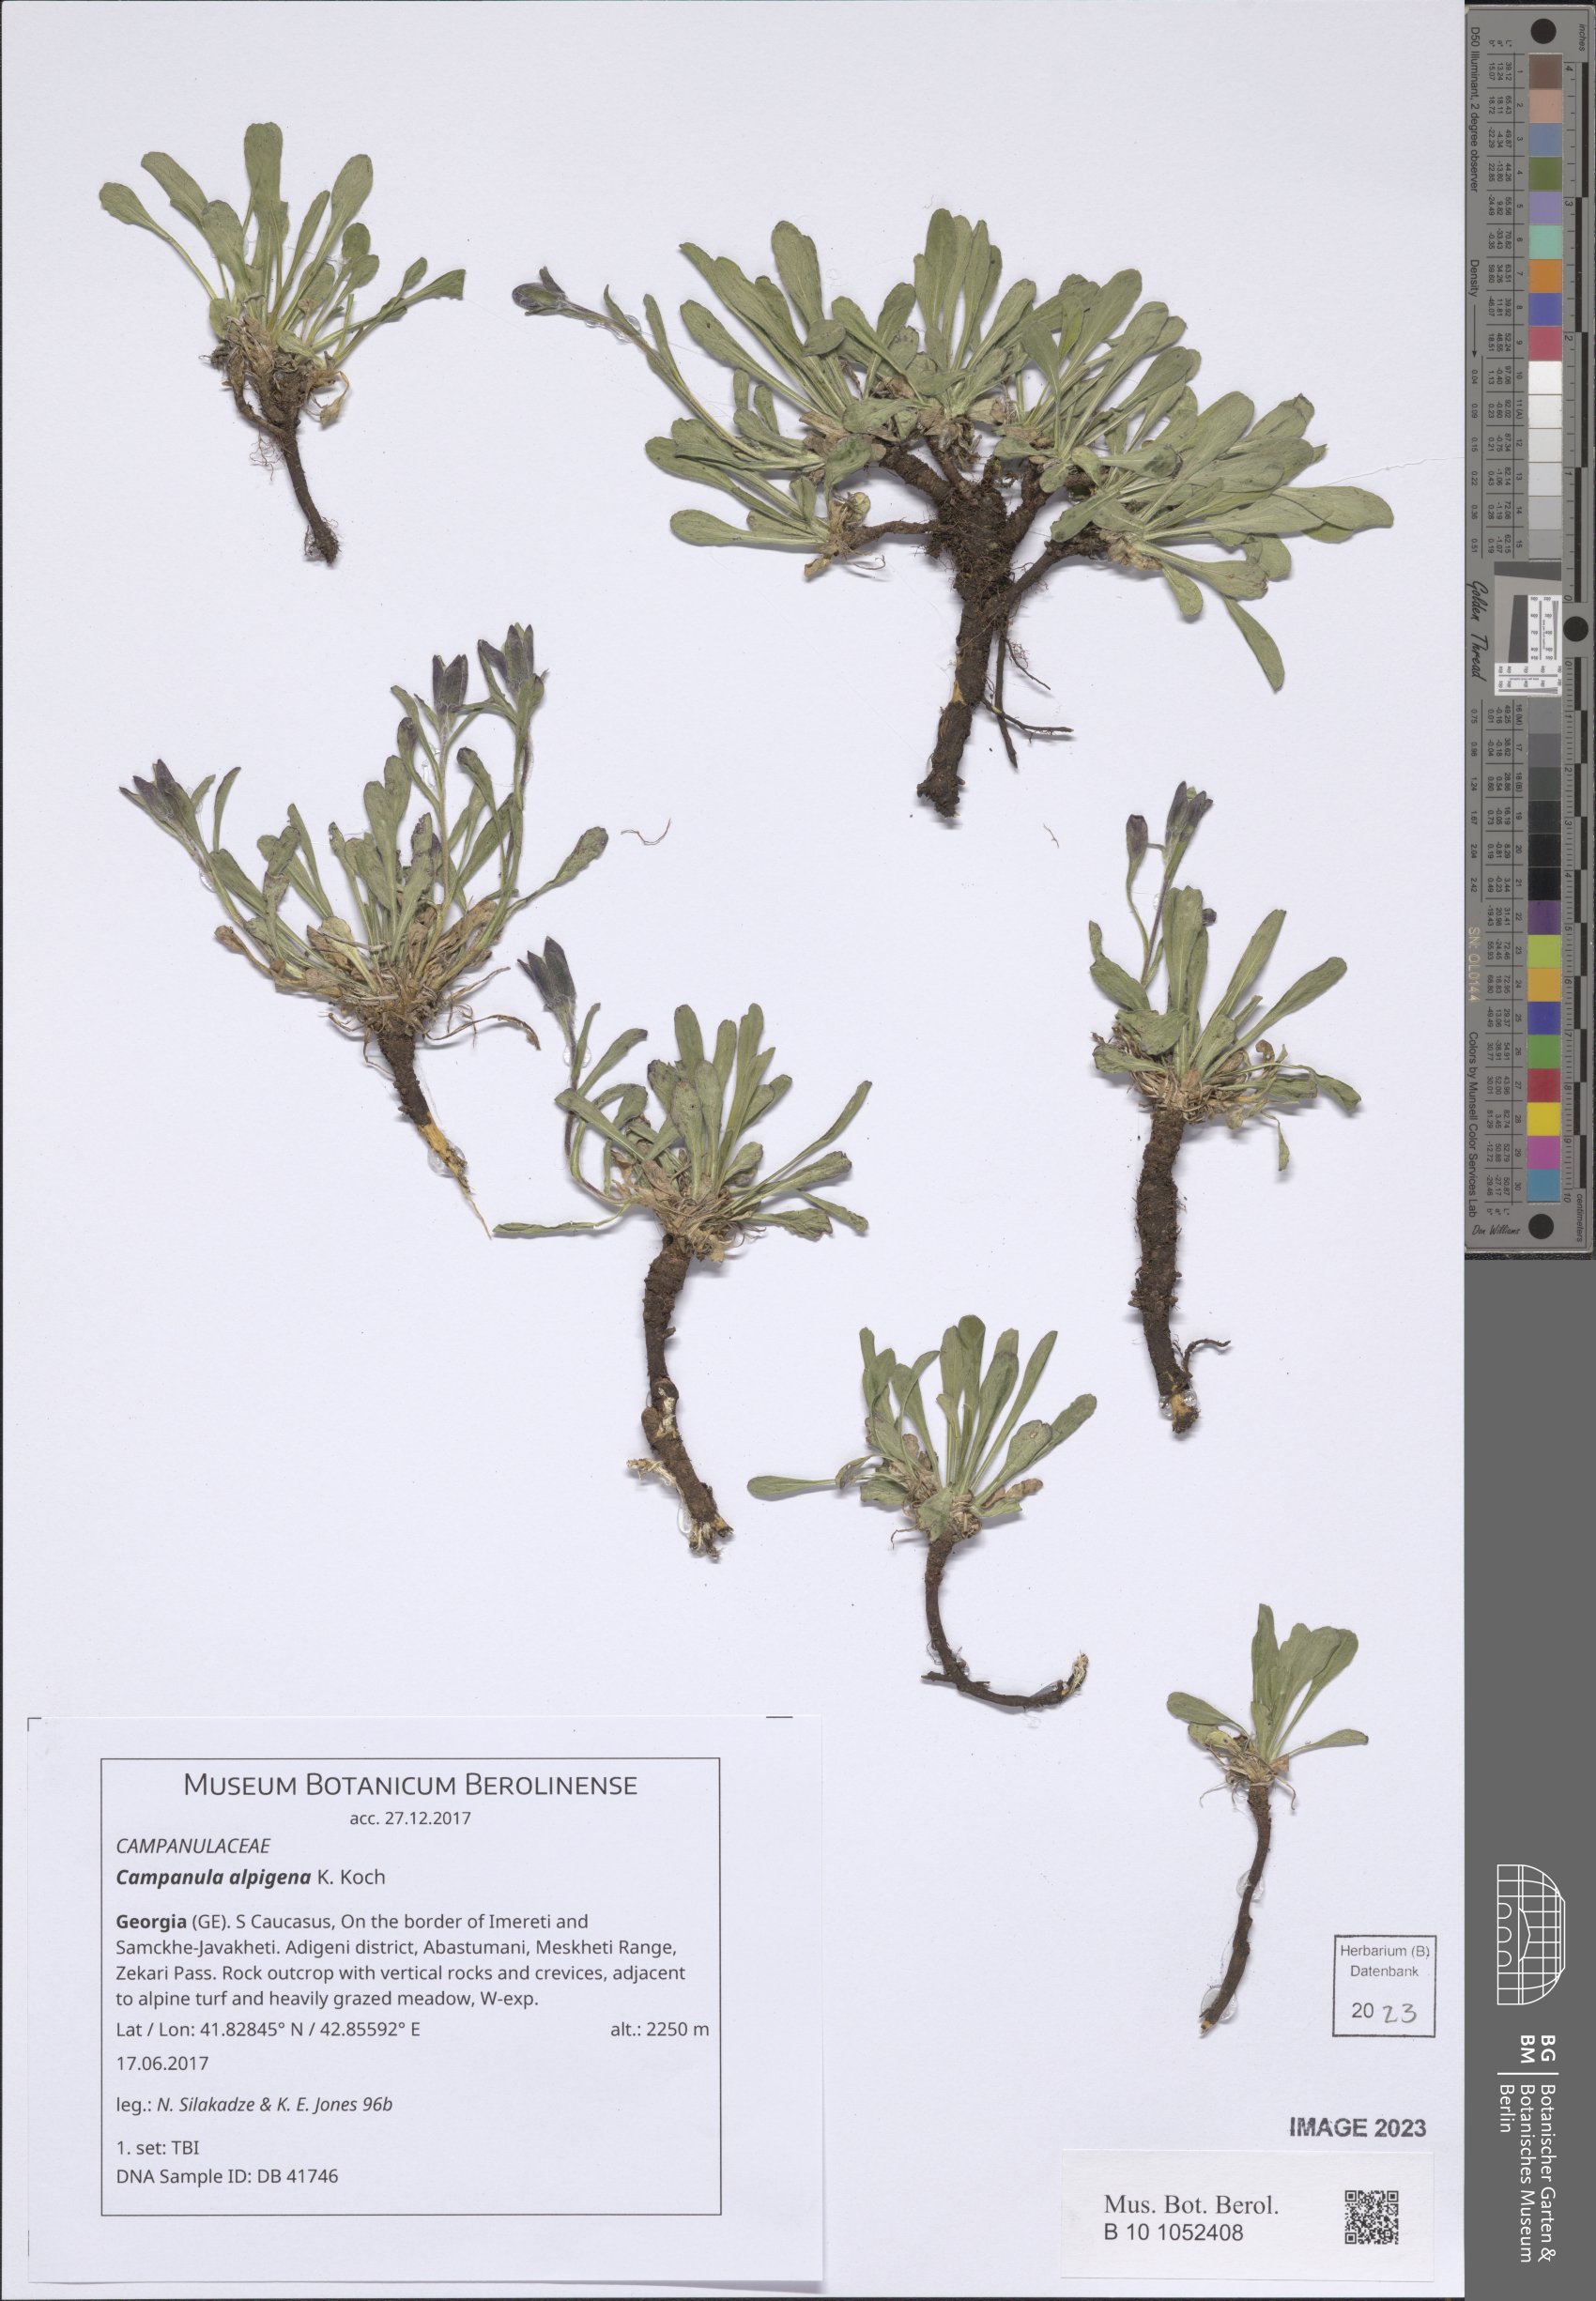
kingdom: Plantae
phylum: Tracheophyta
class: Magnoliopsida
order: Asterales
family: Campanulaceae
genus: Campanula
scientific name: Campanula saxifraga
